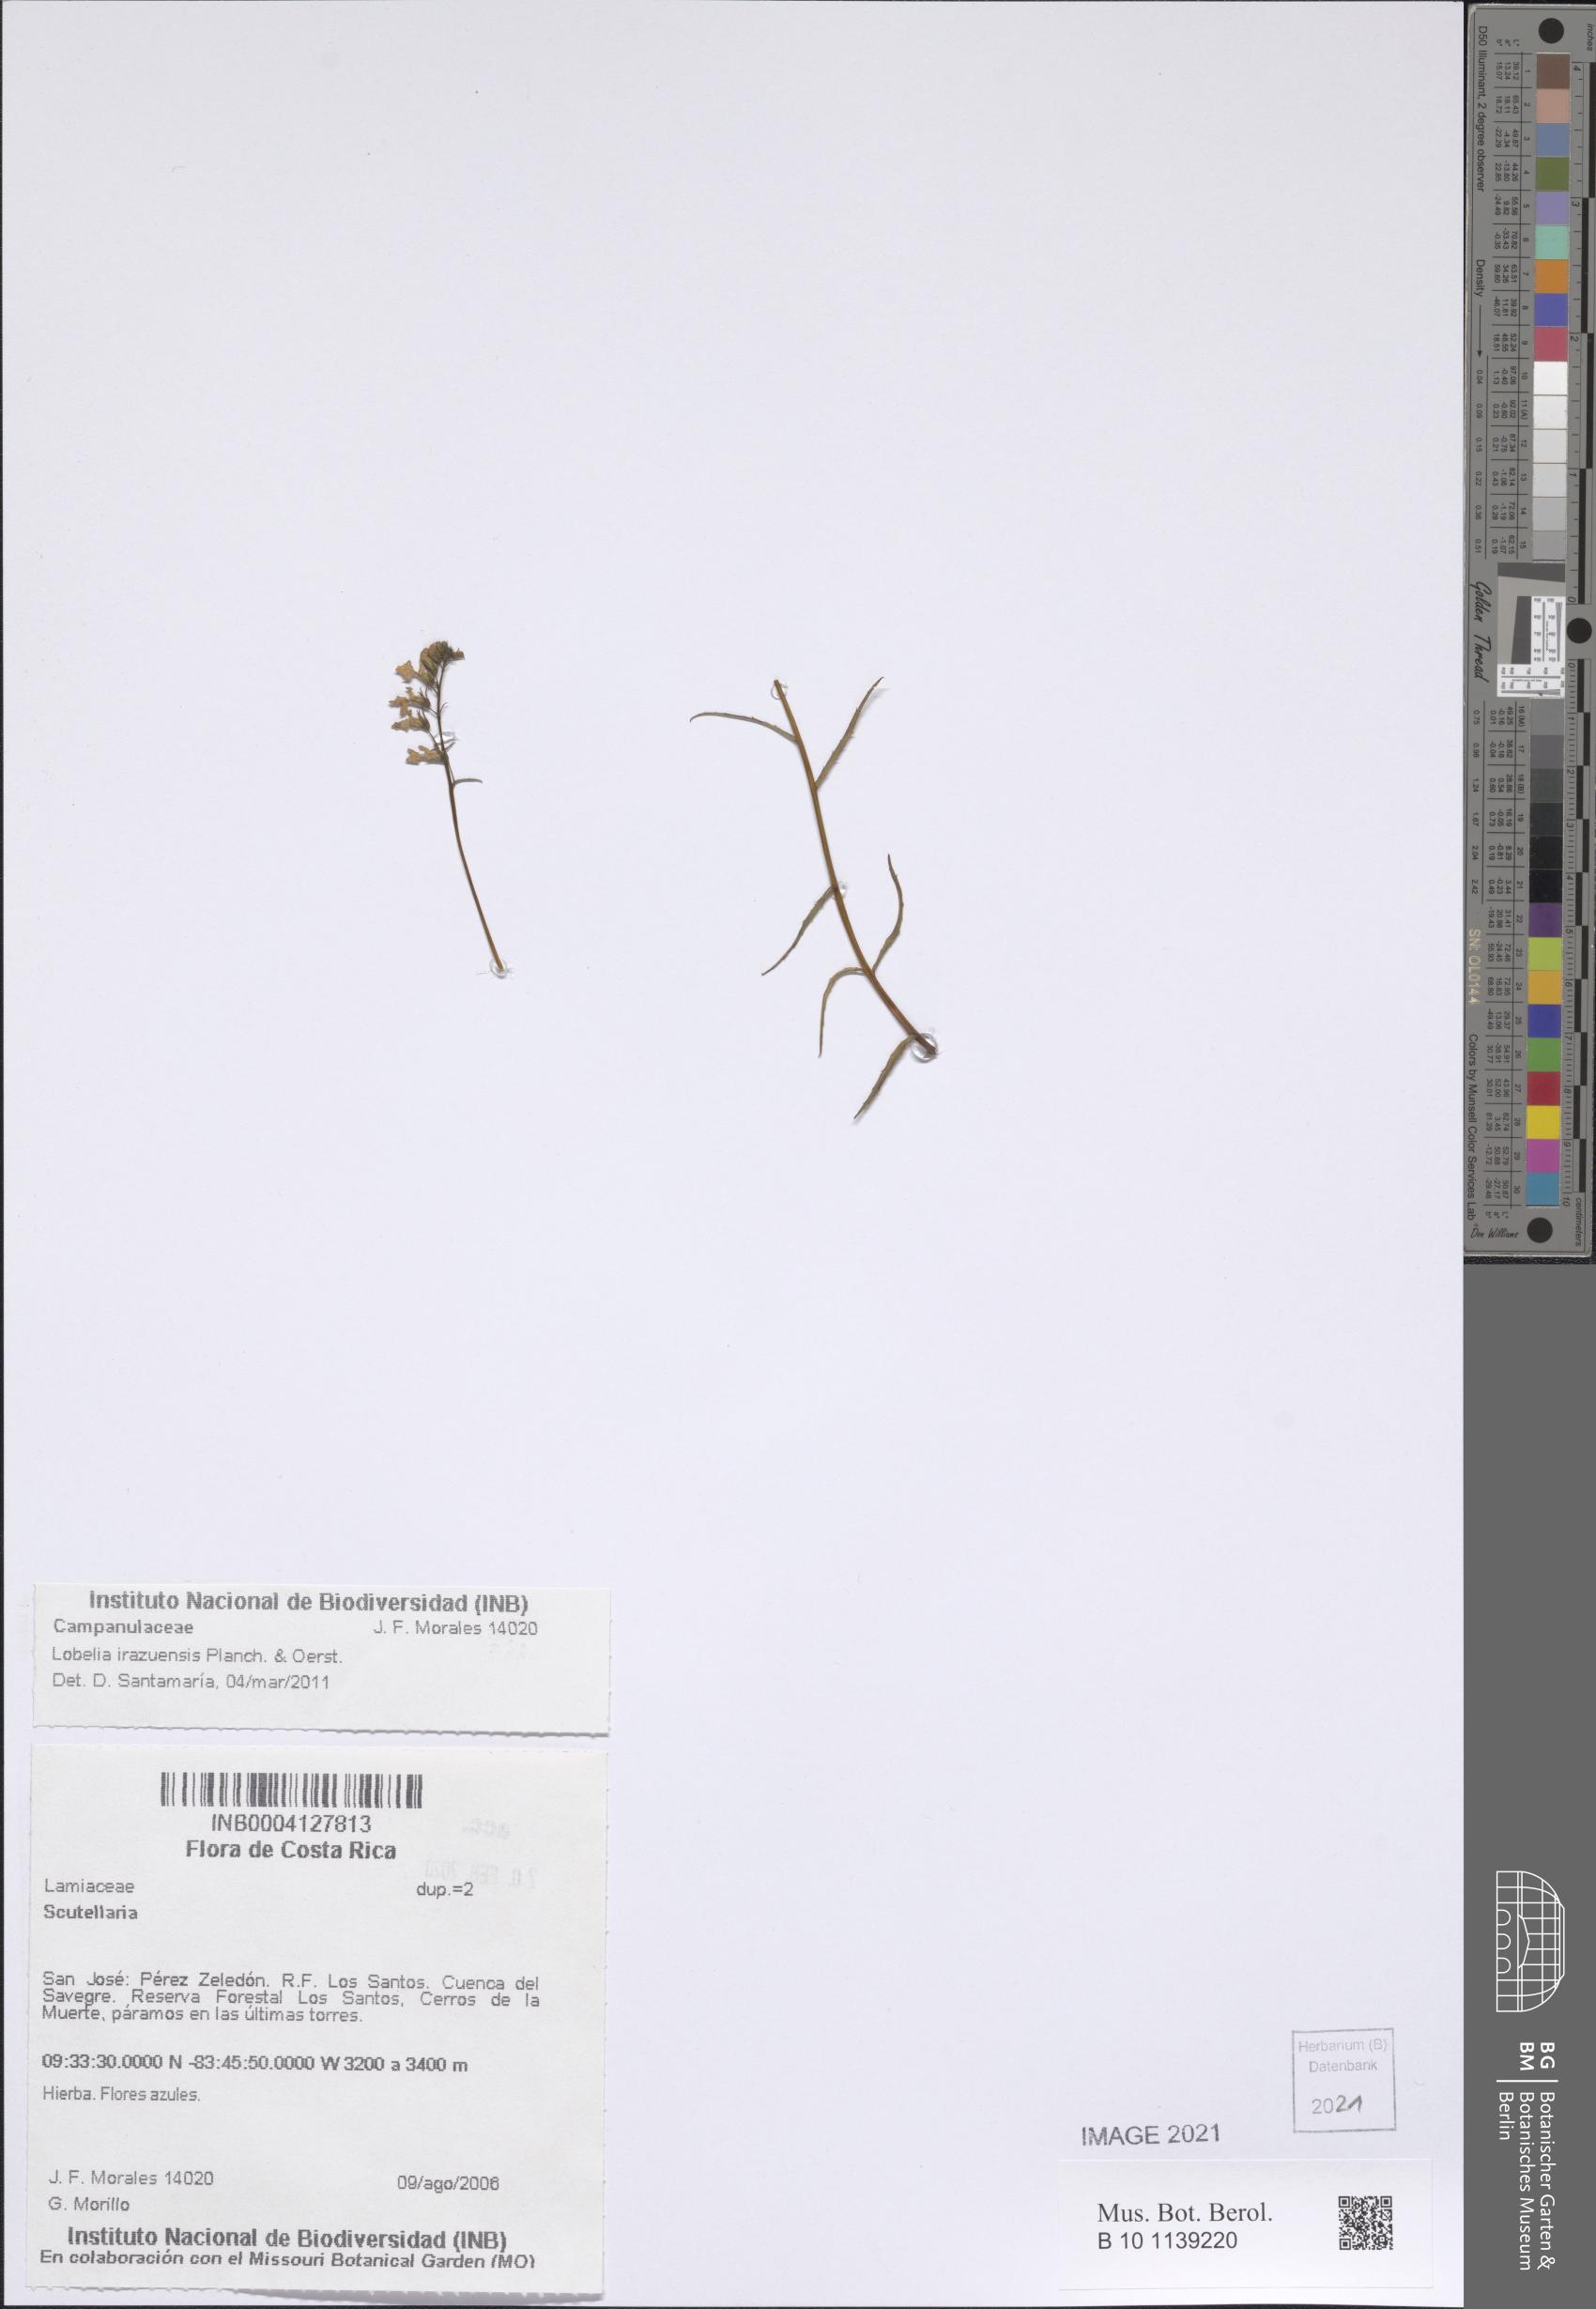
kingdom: Plantae
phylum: Tracheophyta
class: Magnoliopsida
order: Asterales
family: Campanulaceae
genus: Lobelia
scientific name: Lobelia irasuensis
